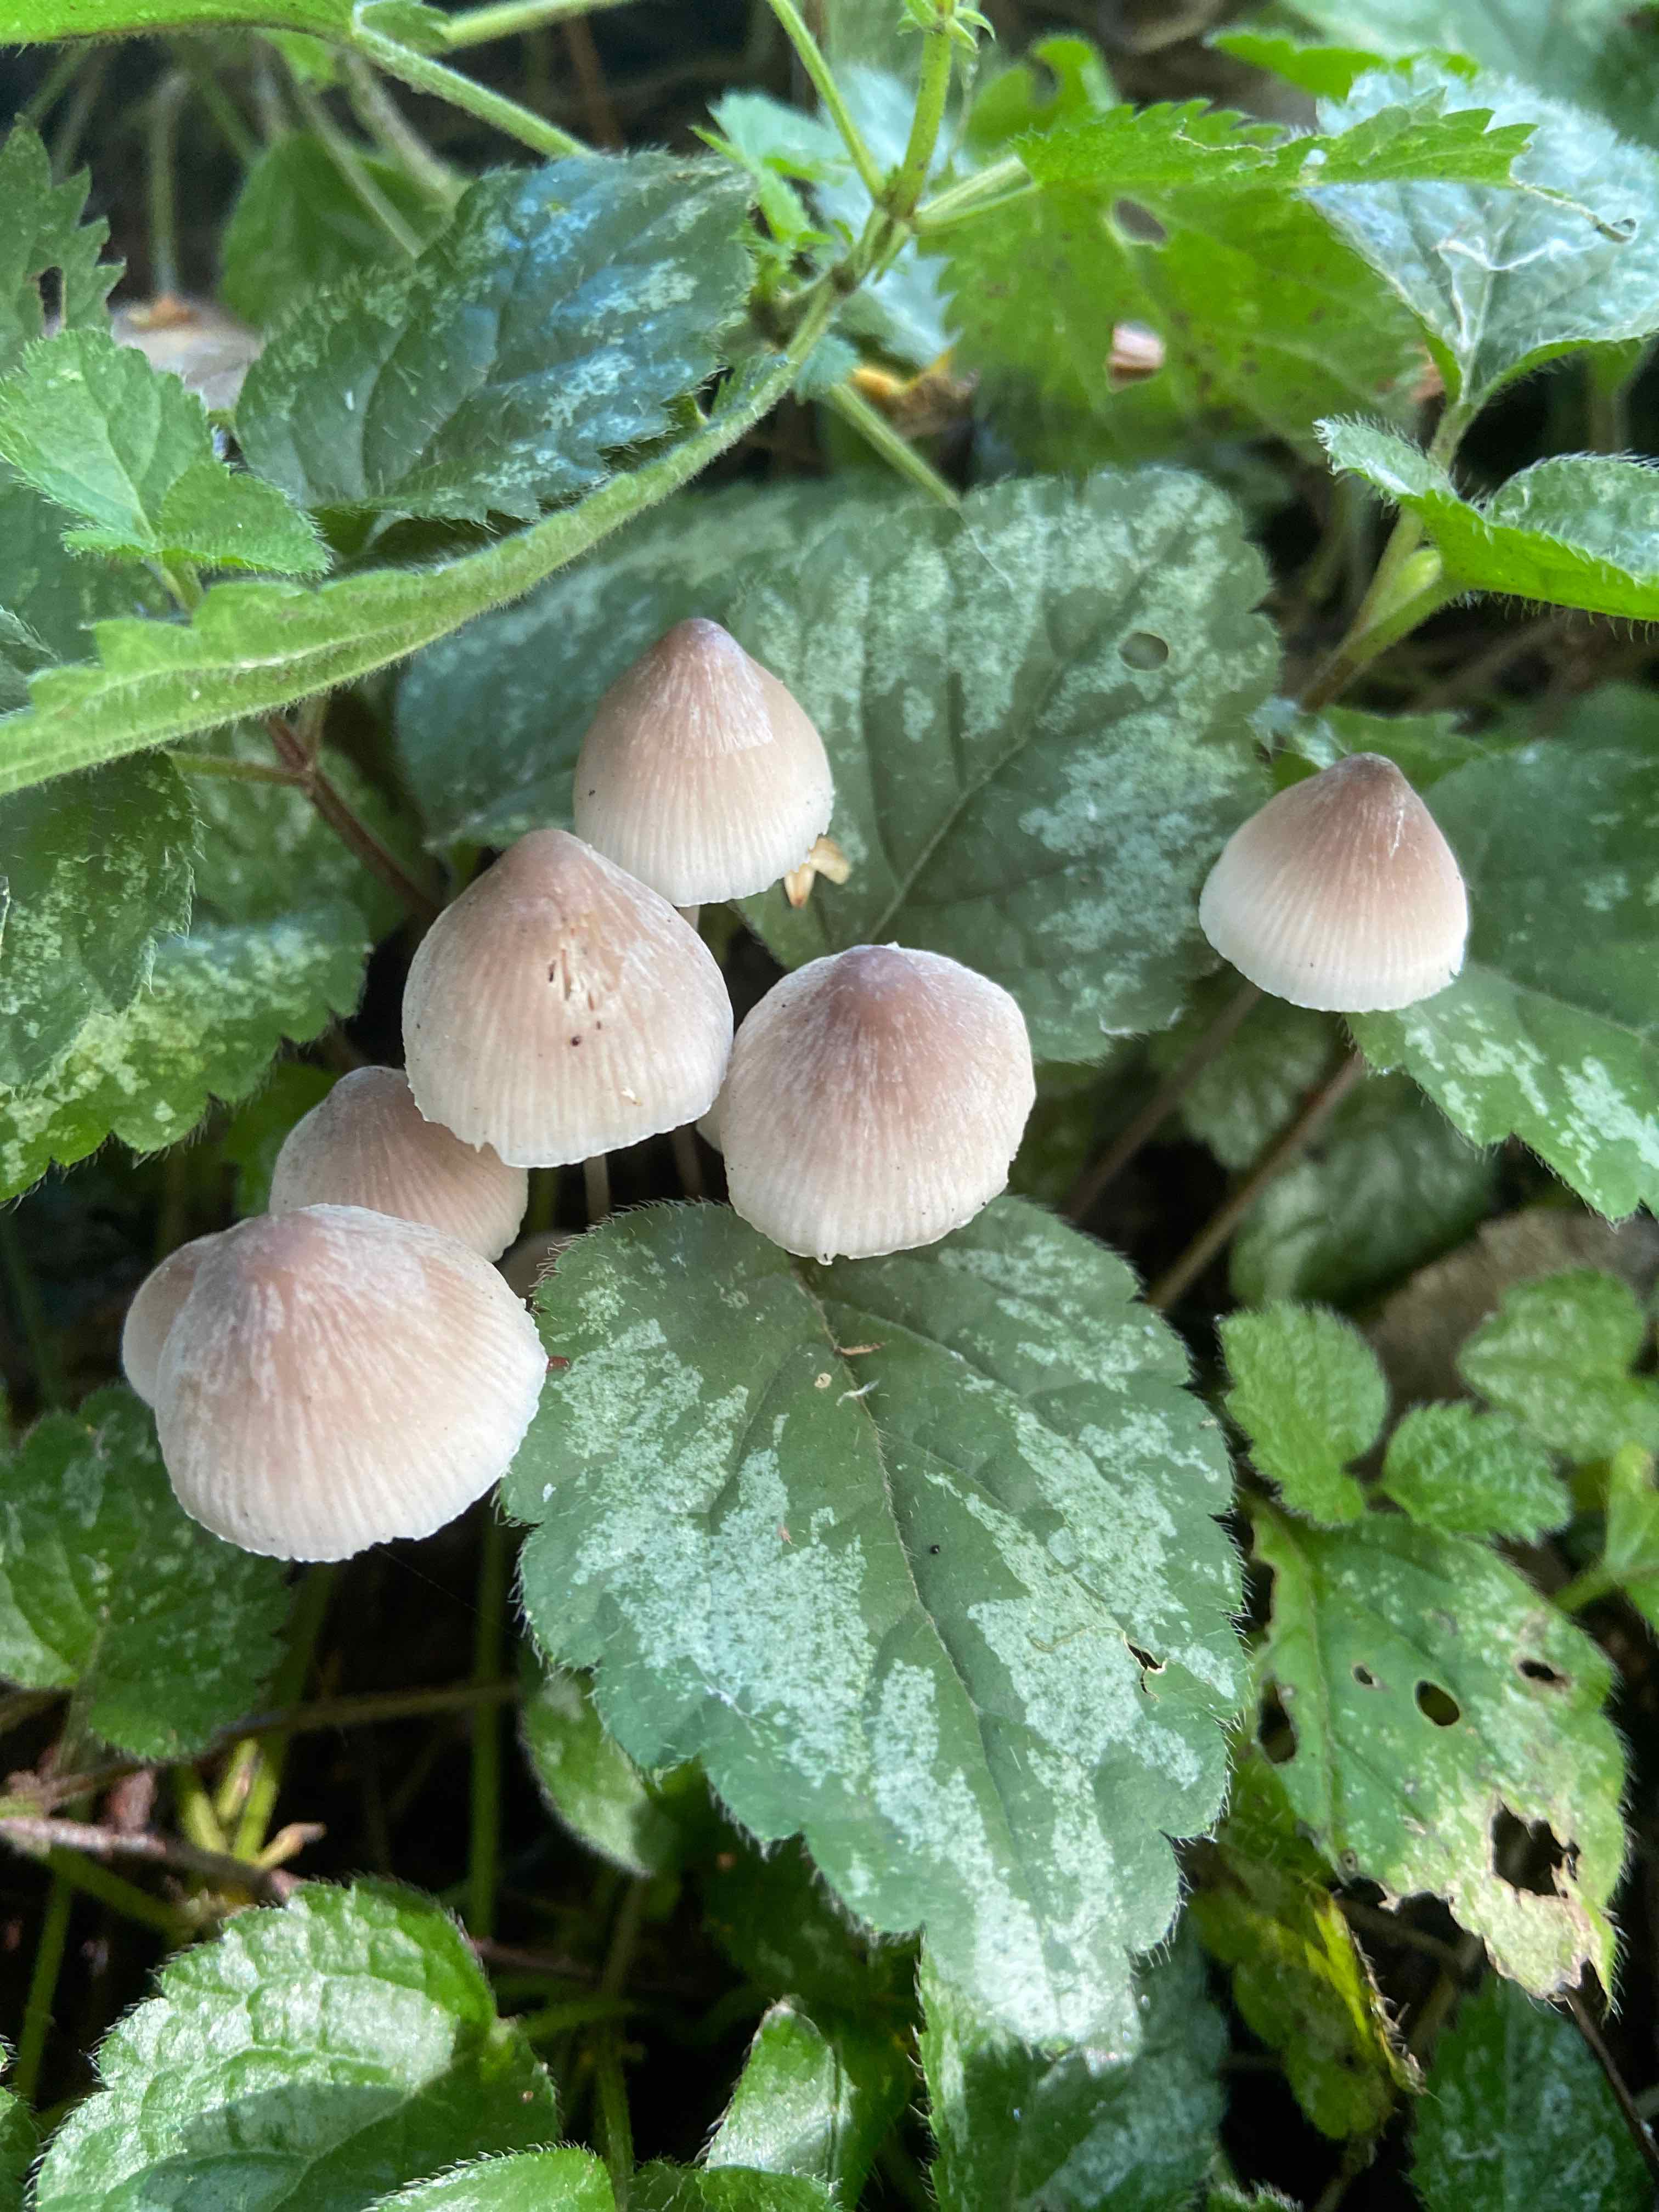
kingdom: Fungi
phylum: Basidiomycota
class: Agaricomycetes
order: Agaricales
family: Mycenaceae
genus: Mycena
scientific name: Mycena filopes
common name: jod-huesvamp
